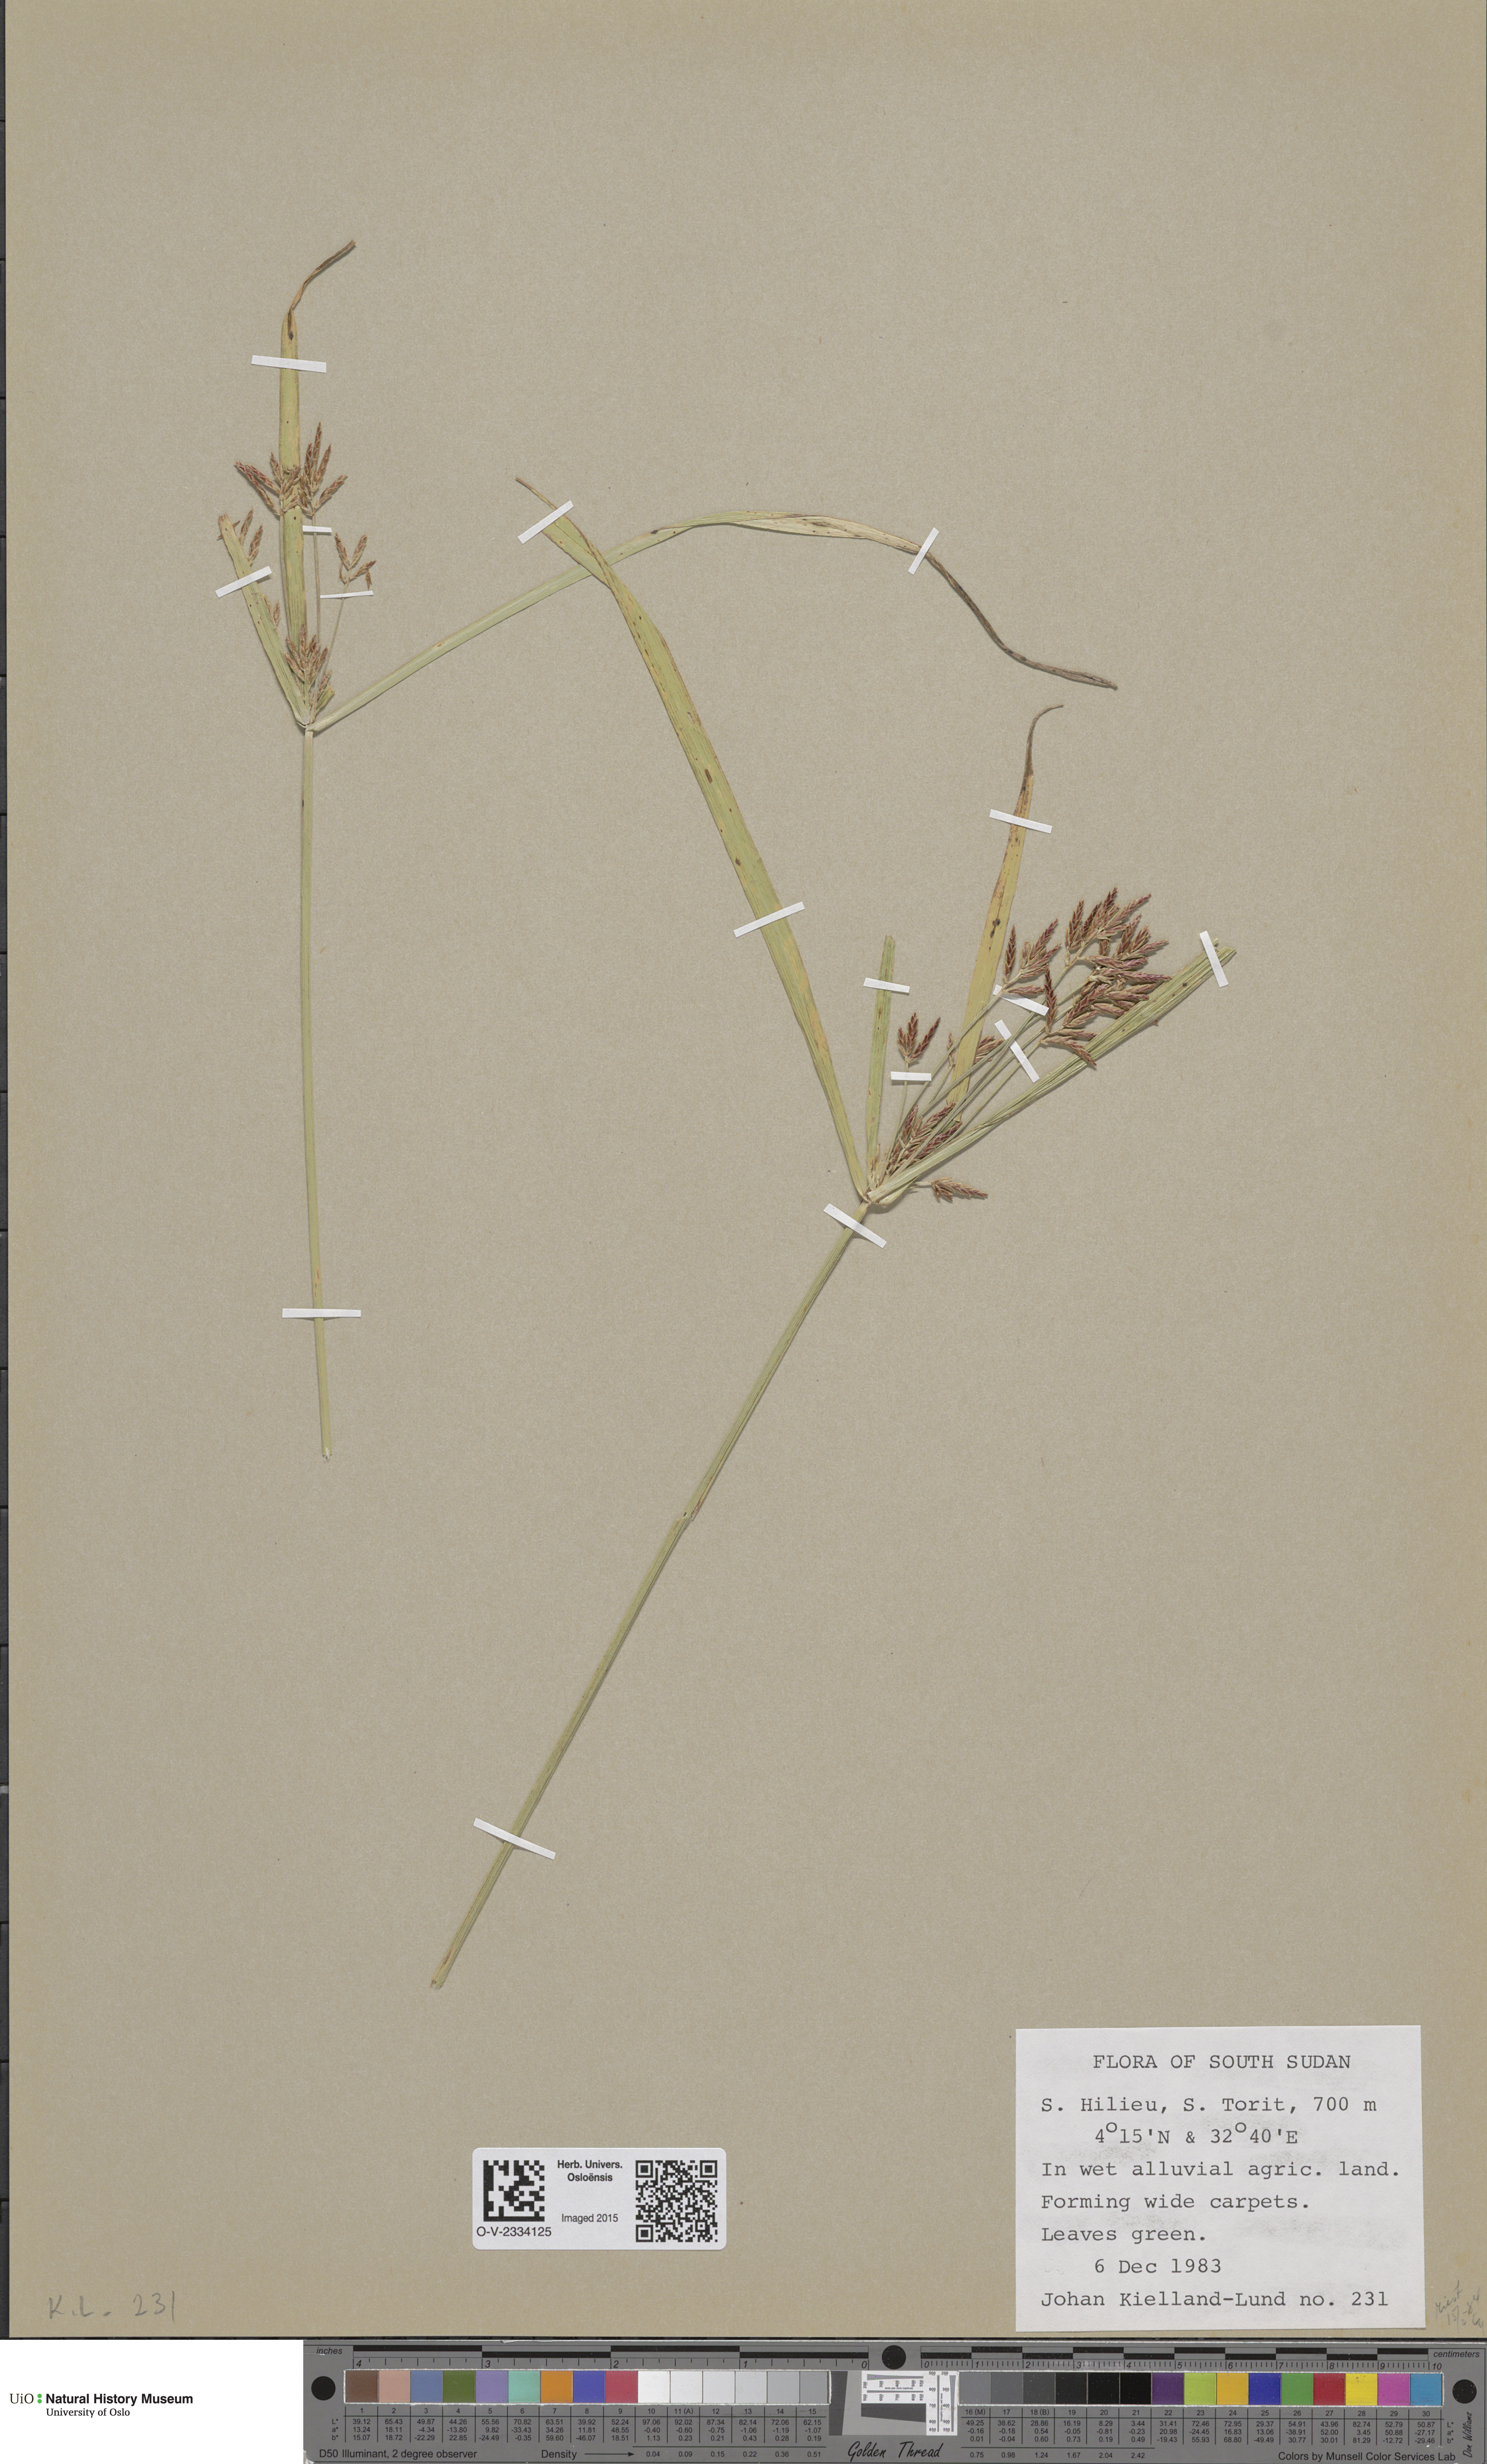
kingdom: Plantae
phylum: Tracheophyta
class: Magnoliopsida
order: Caryophyllales
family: Polygonaceae
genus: Oxyria
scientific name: Oxyria digyna
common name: Alpine mountain-sorrel
